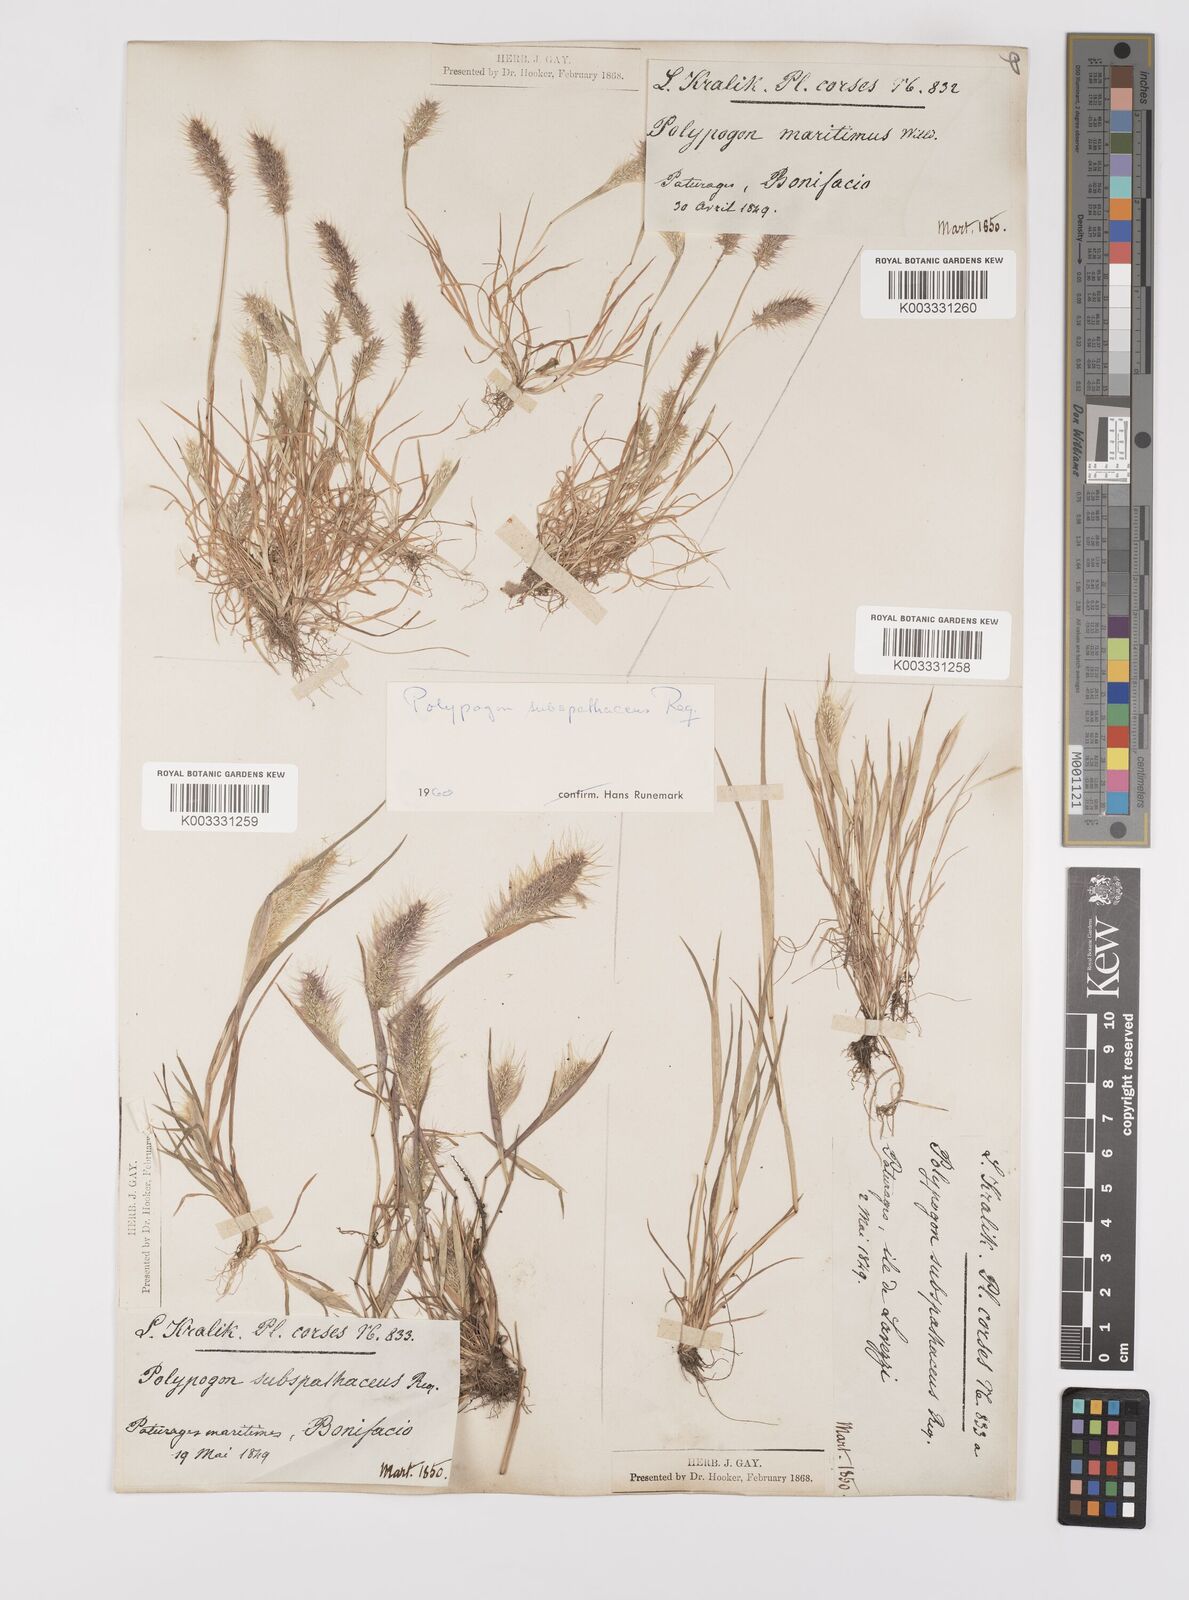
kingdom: Plantae
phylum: Tracheophyta
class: Liliopsida
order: Poales
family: Poaceae
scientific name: Poaceae
